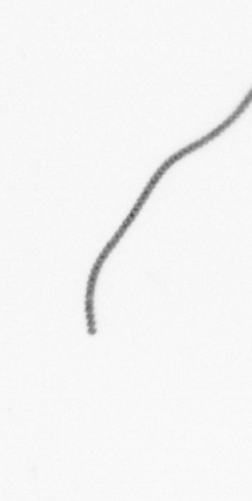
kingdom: Chromista
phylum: Ochrophyta
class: Bacillariophyceae
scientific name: Bacillariophyceae
